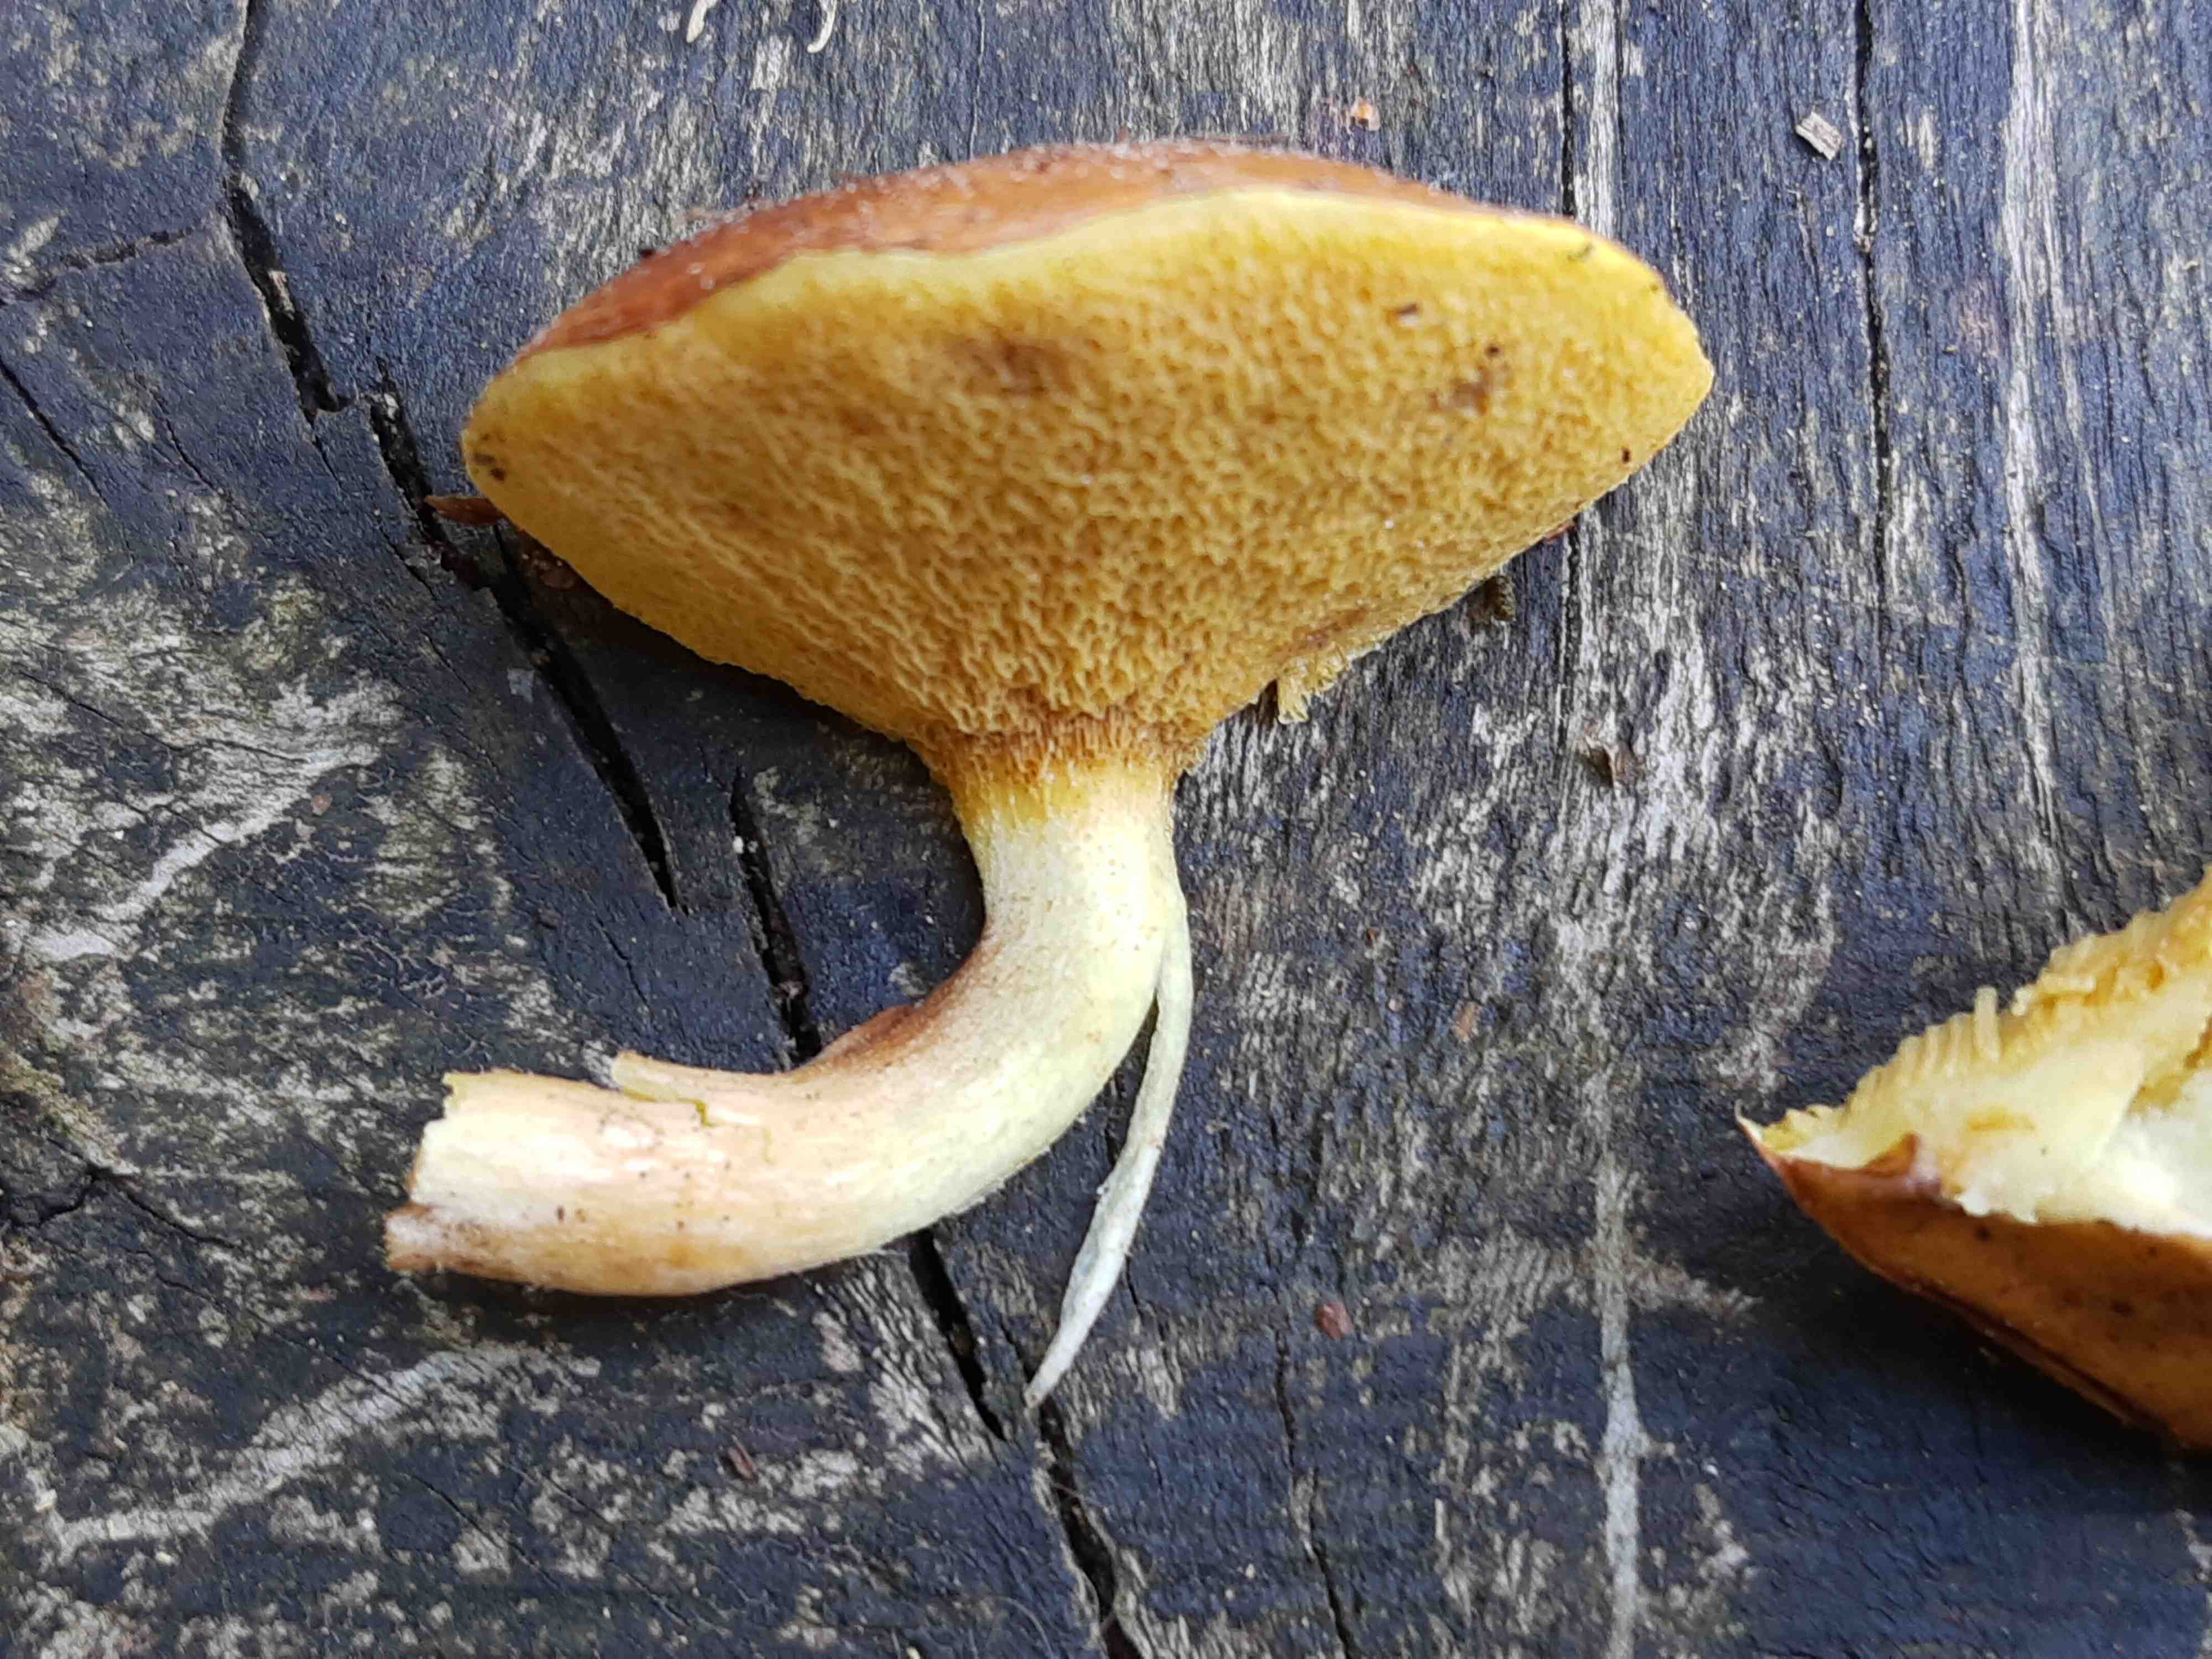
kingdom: Fungi
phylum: Basidiomycota
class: Agaricomycetes
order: Boletales
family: Suillaceae
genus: Suillus
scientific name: Suillus granulatus
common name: kornet slimrørhat
